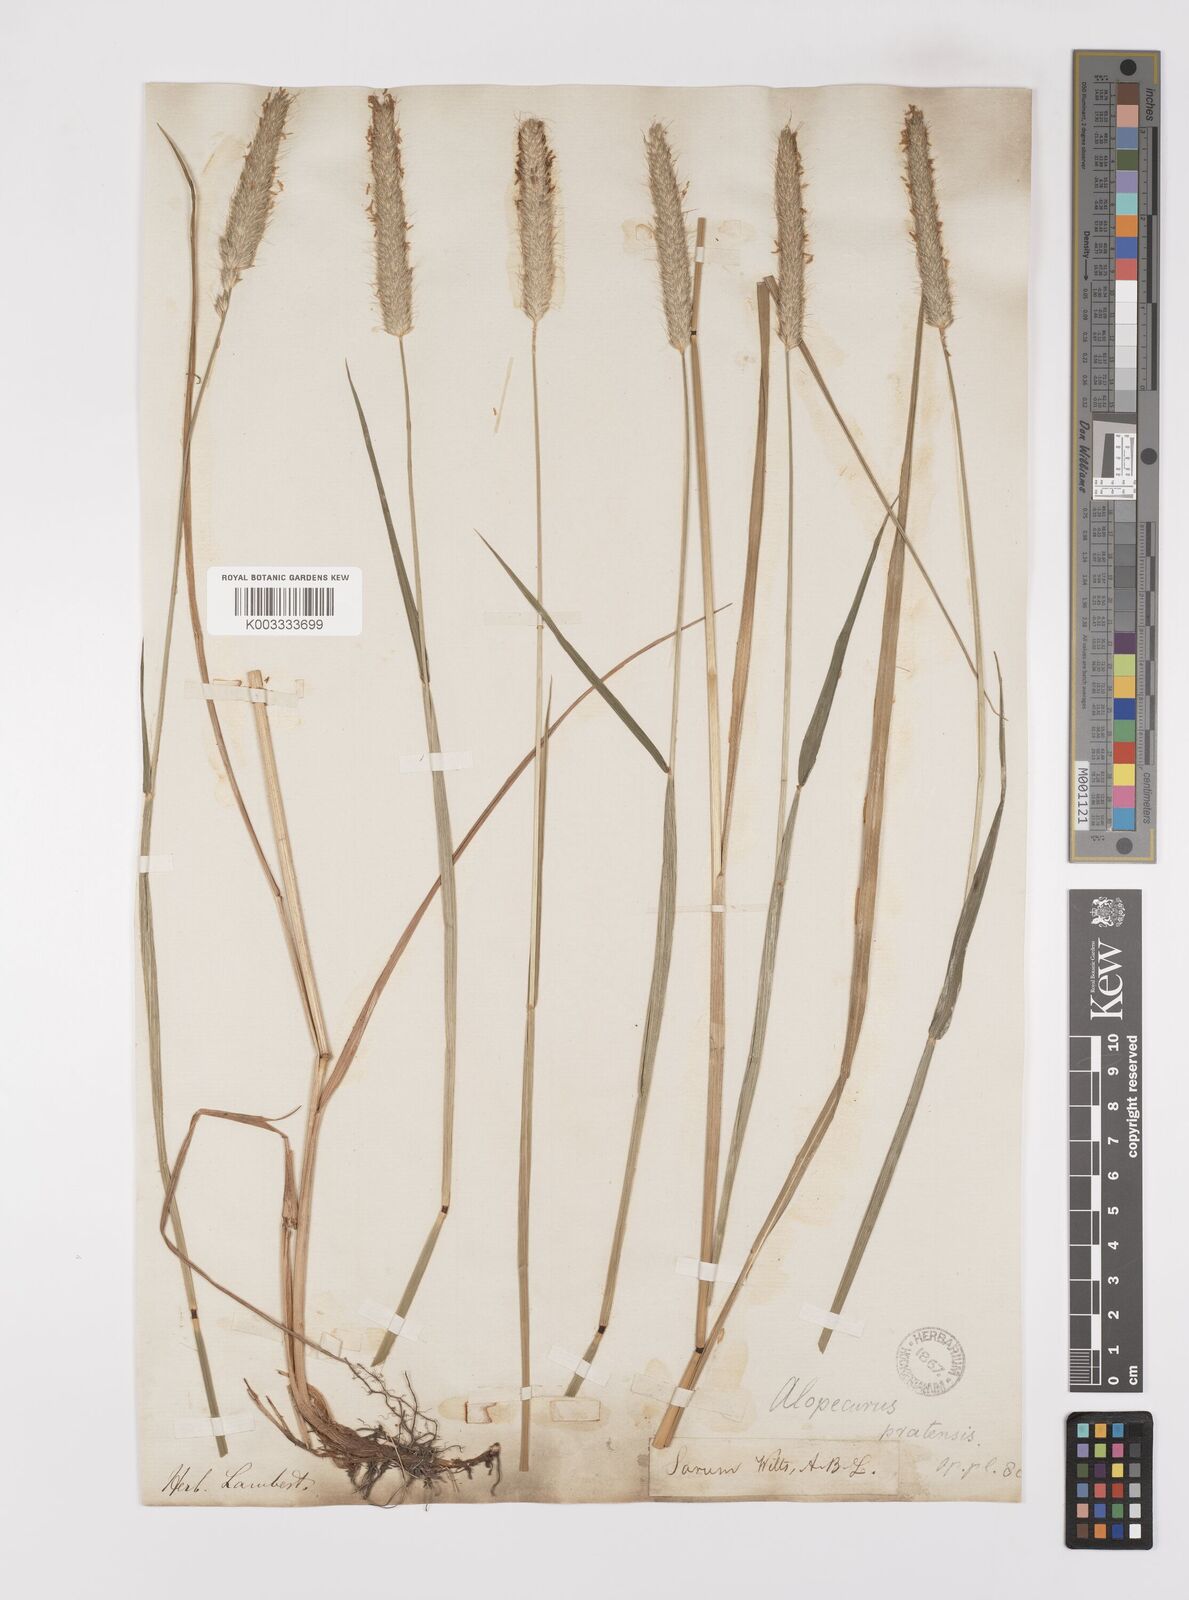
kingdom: Plantae
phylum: Tracheophyta
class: Liliopsida
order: Poales
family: Poaceae
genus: Alopecurus
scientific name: Alopecurus pratensis
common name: Meadow foxtail
